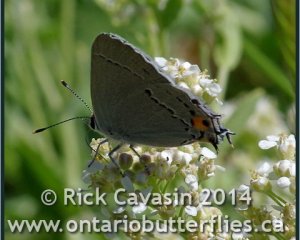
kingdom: Animalia
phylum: Arthropoda
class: Insecta
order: Lepidoptera
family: Lycaenidae
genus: Strymon
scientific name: Strymon melinus
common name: Gray Hairstreak
